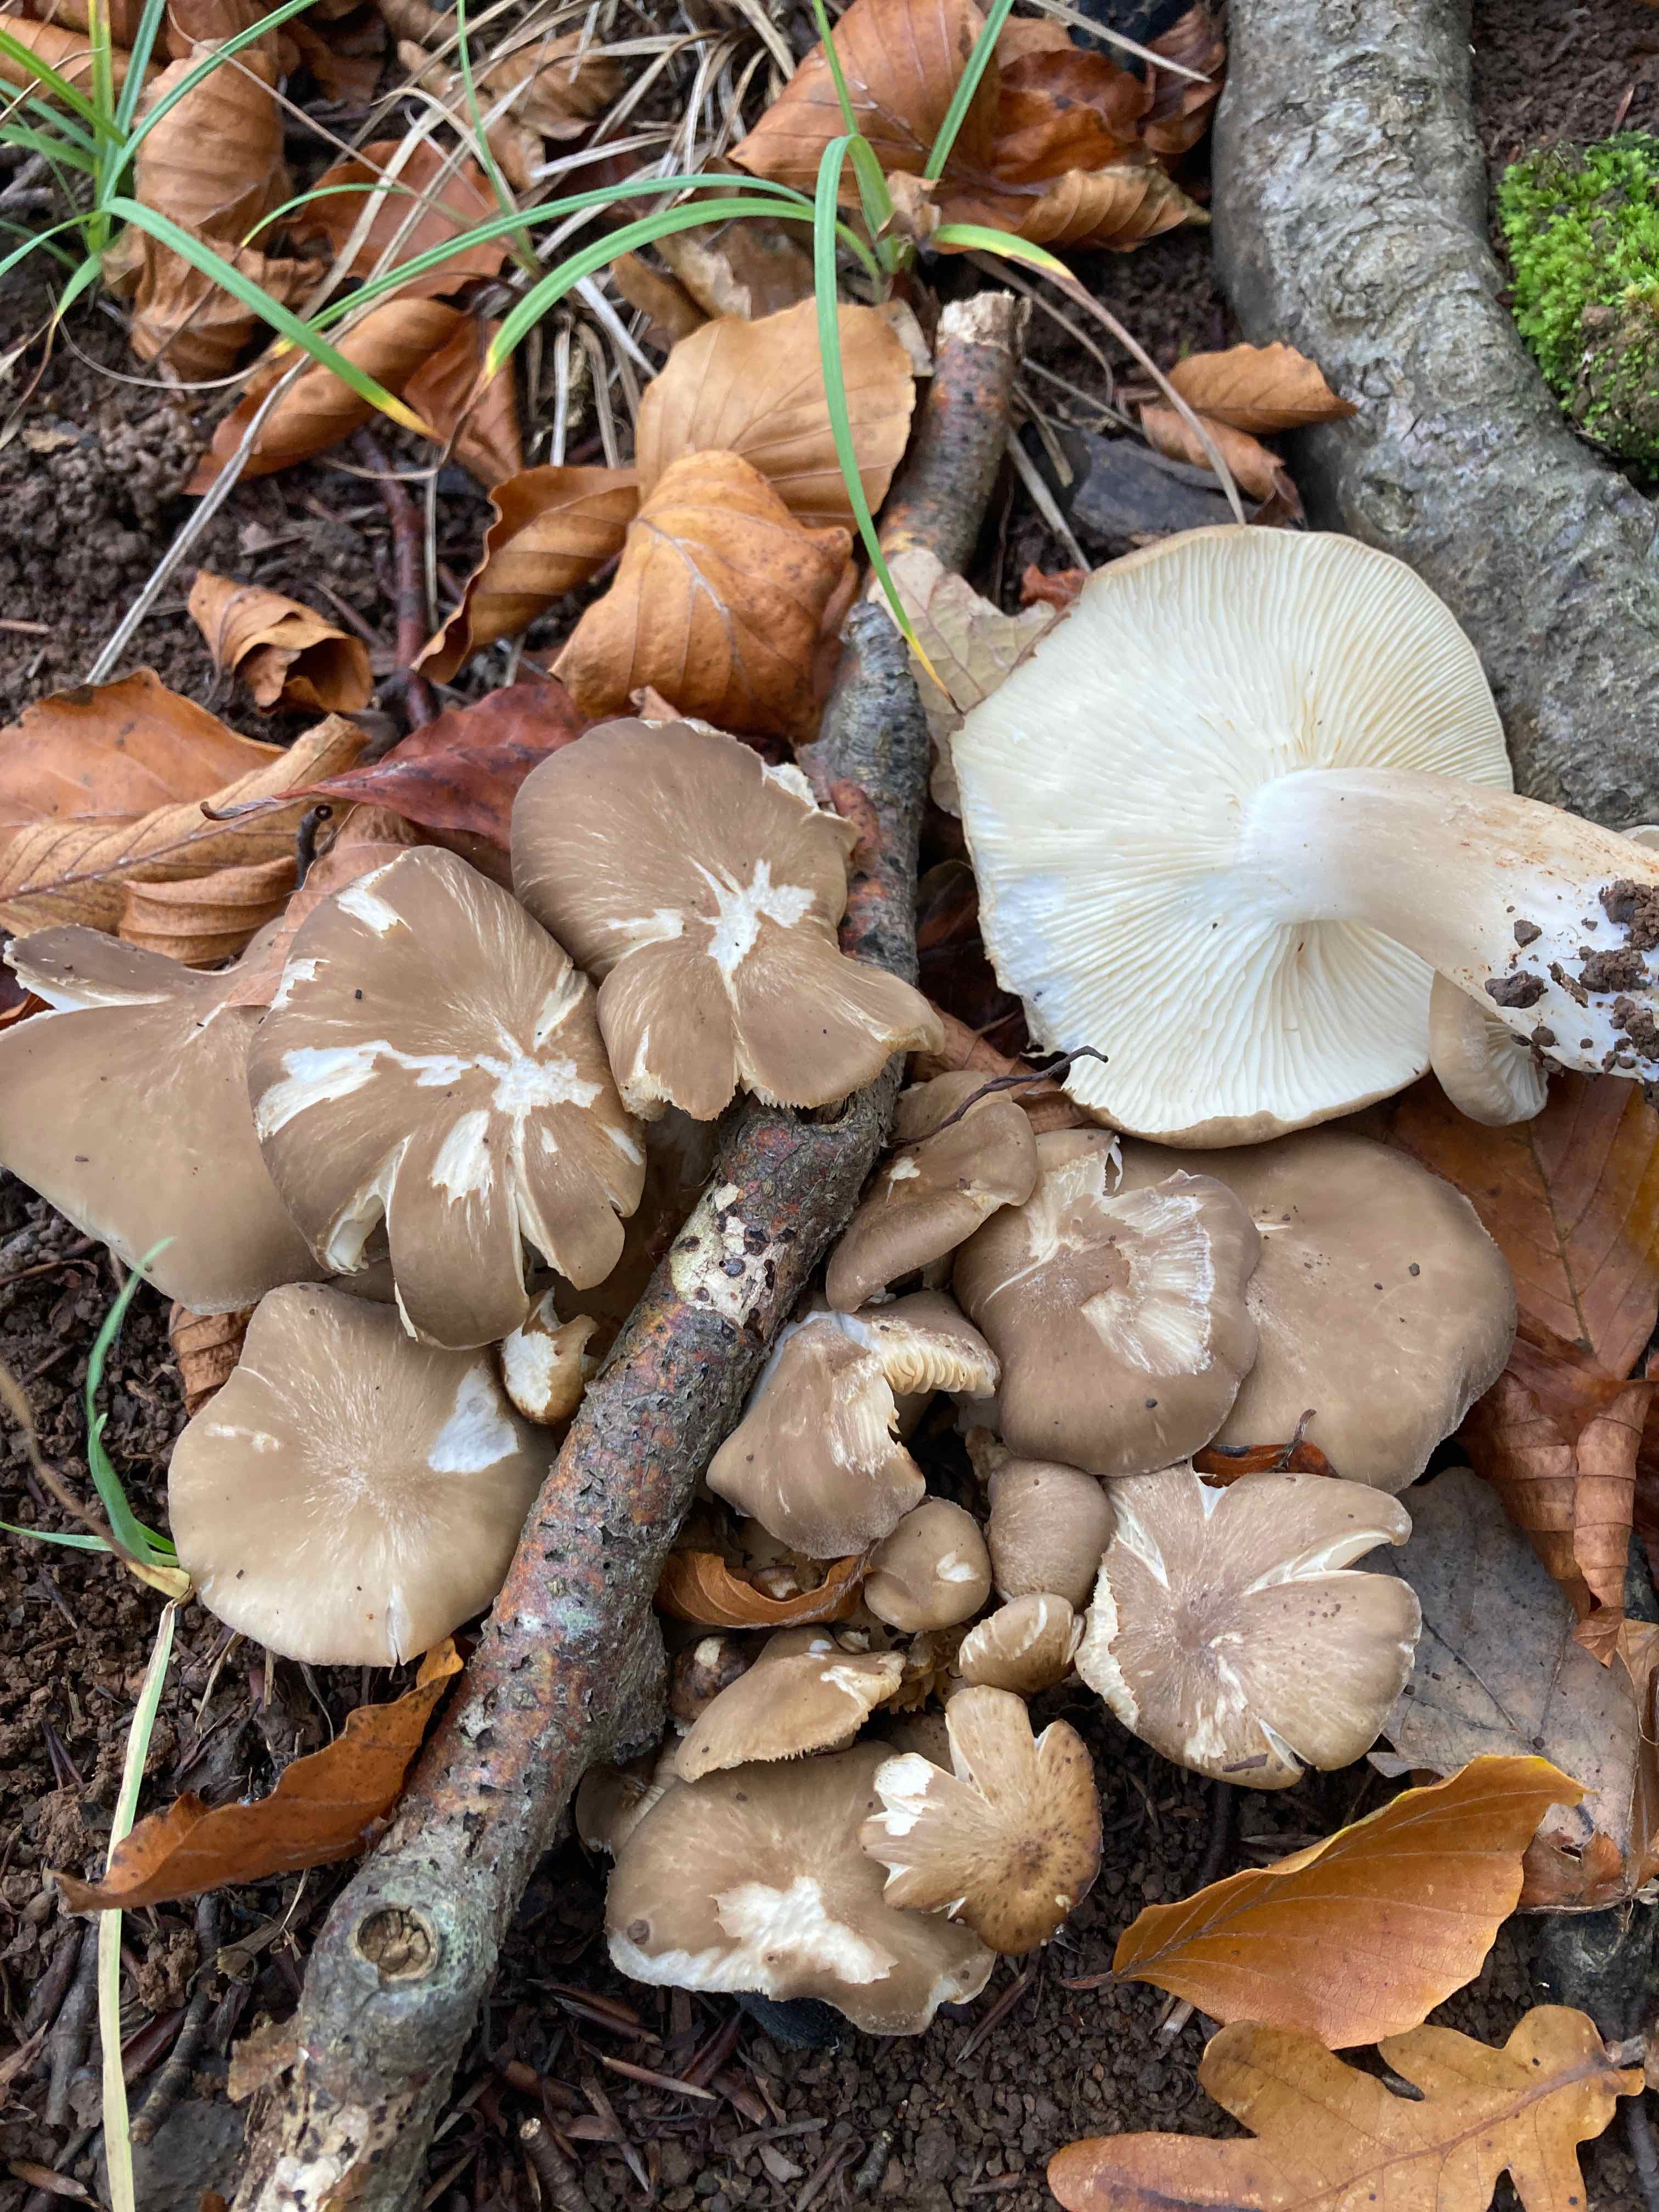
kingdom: Fungi
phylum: Basidiomycota
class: Agaricomycetes
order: Agaricales
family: Lyophyllaceae
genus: Lyophyllum
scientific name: Lyophyllum decastes
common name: røggrå gråblad
